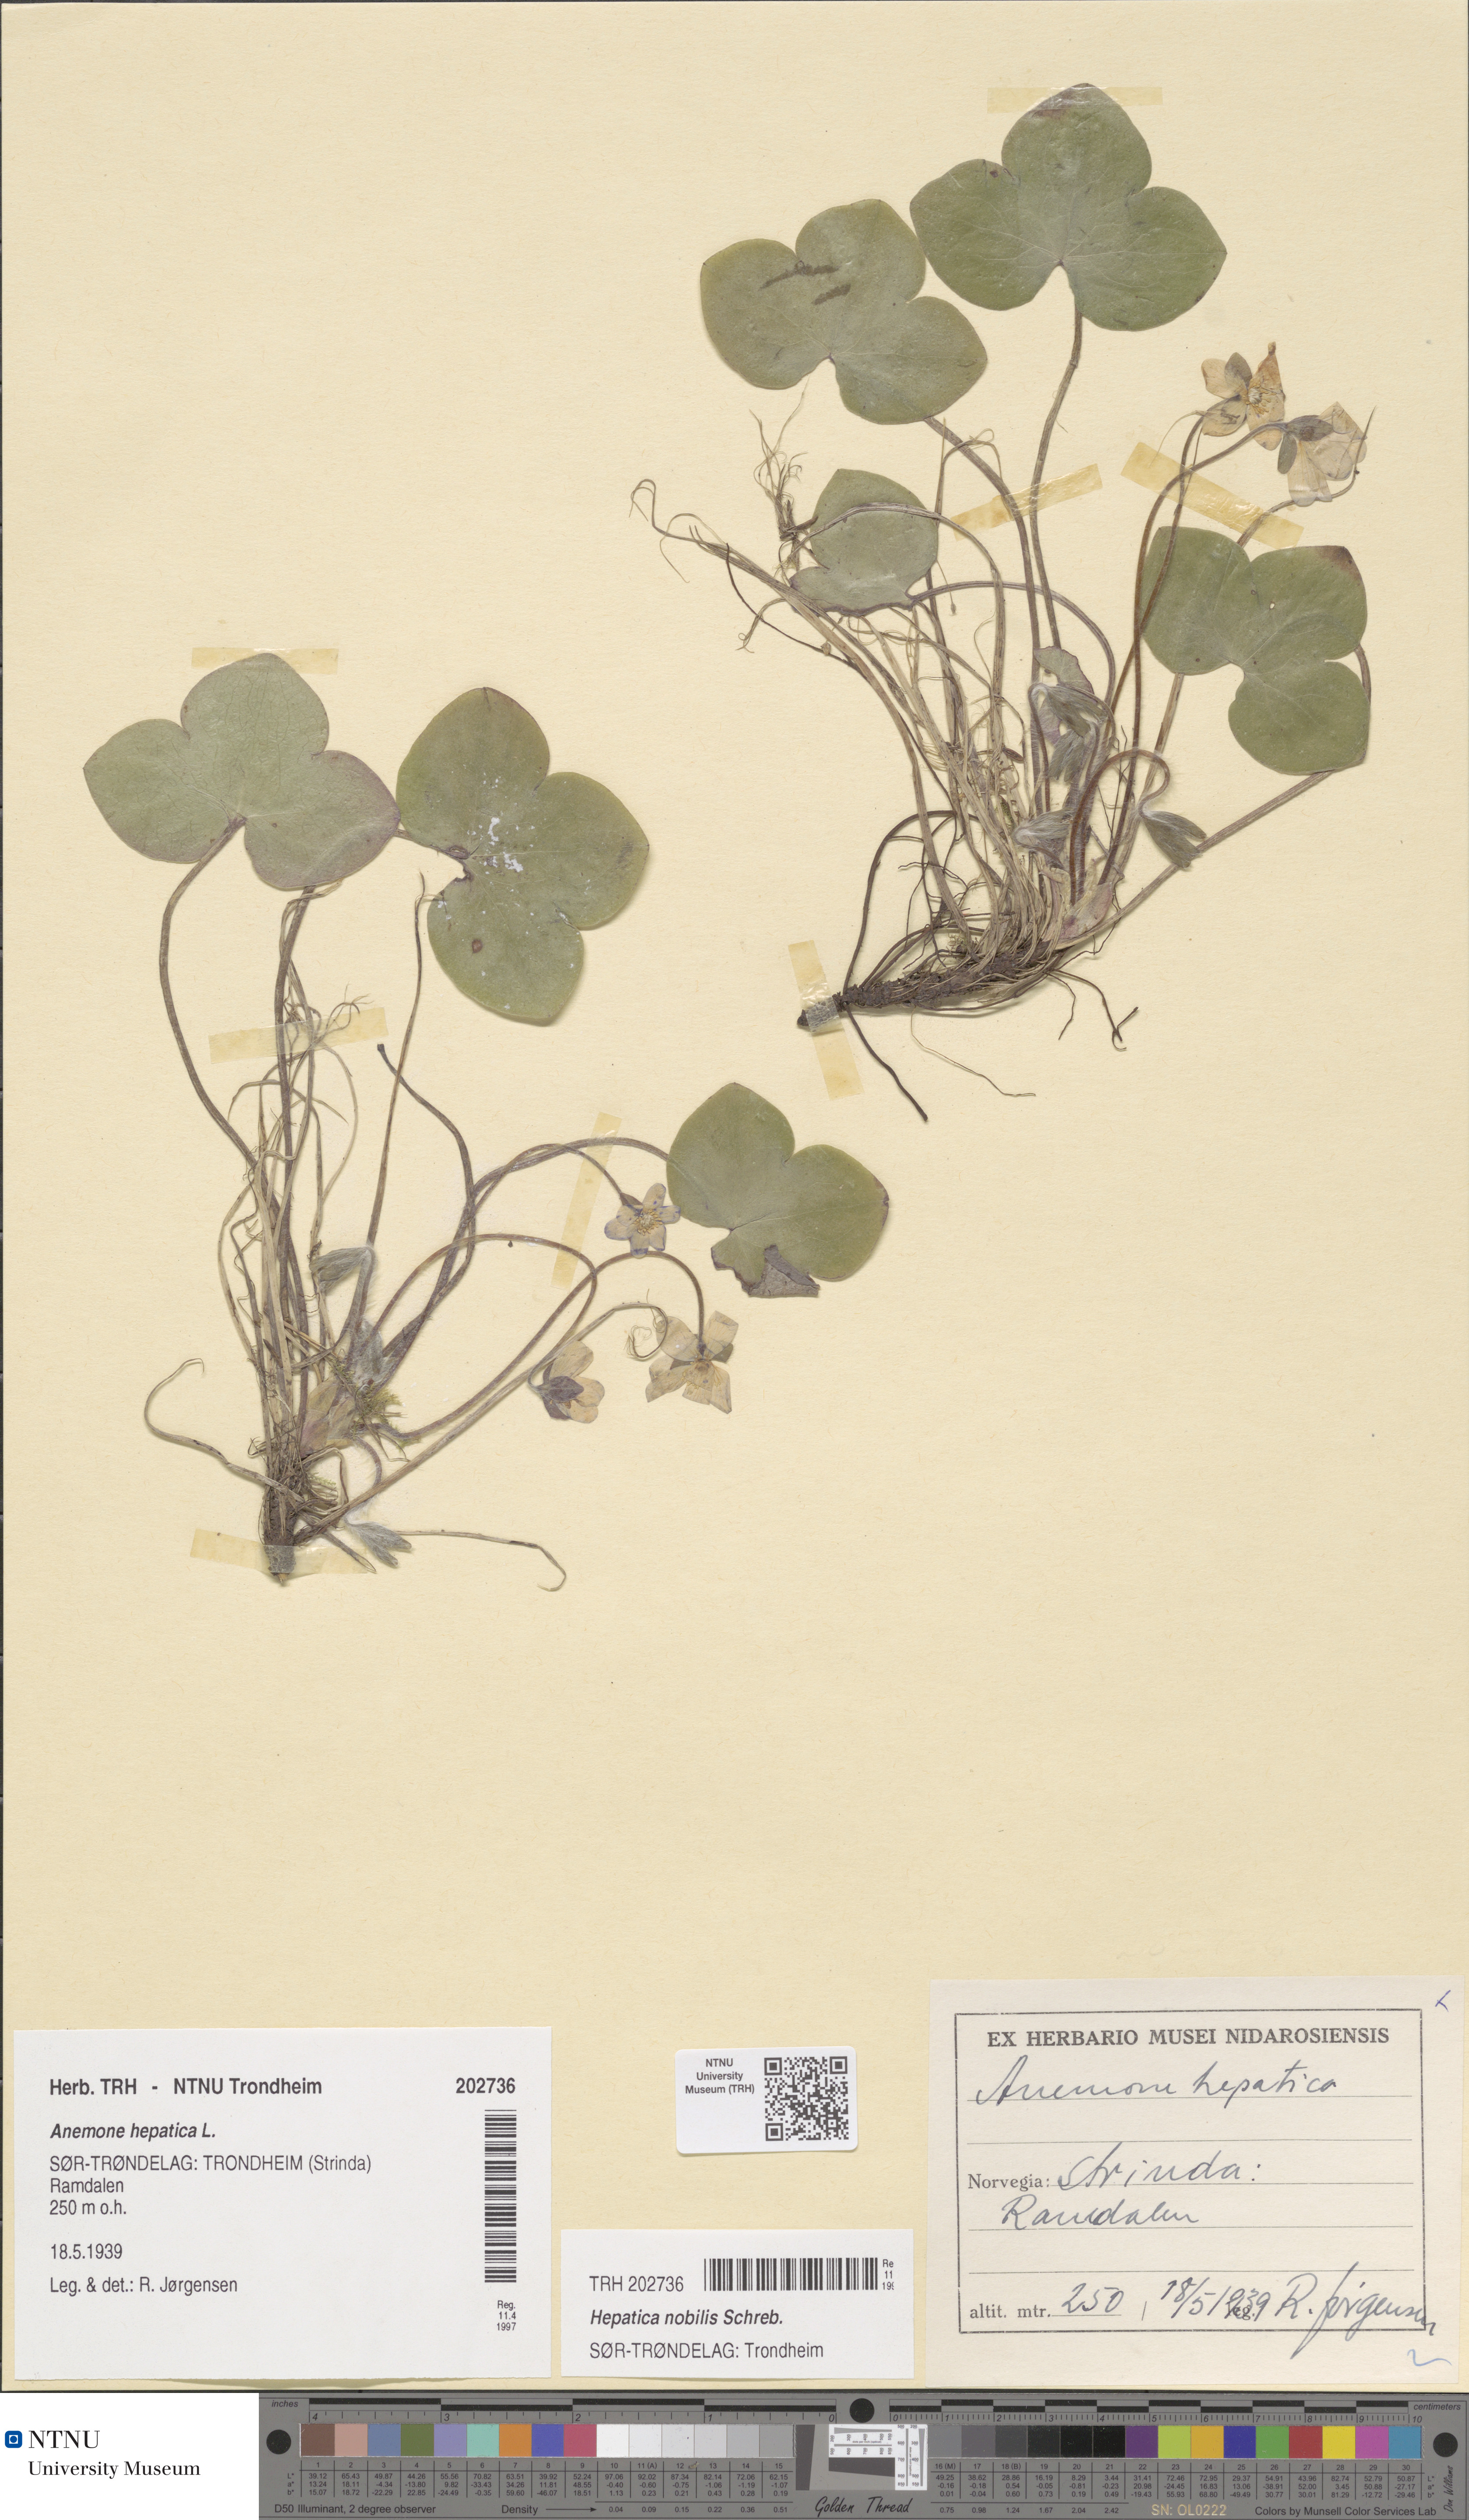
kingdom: Plantae
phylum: Tracheophyta
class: Magnoliopsida
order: Ranunculales
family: Ranunculaceae
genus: Hepatica
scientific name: Hepatica nobilis
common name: Liverleaf
